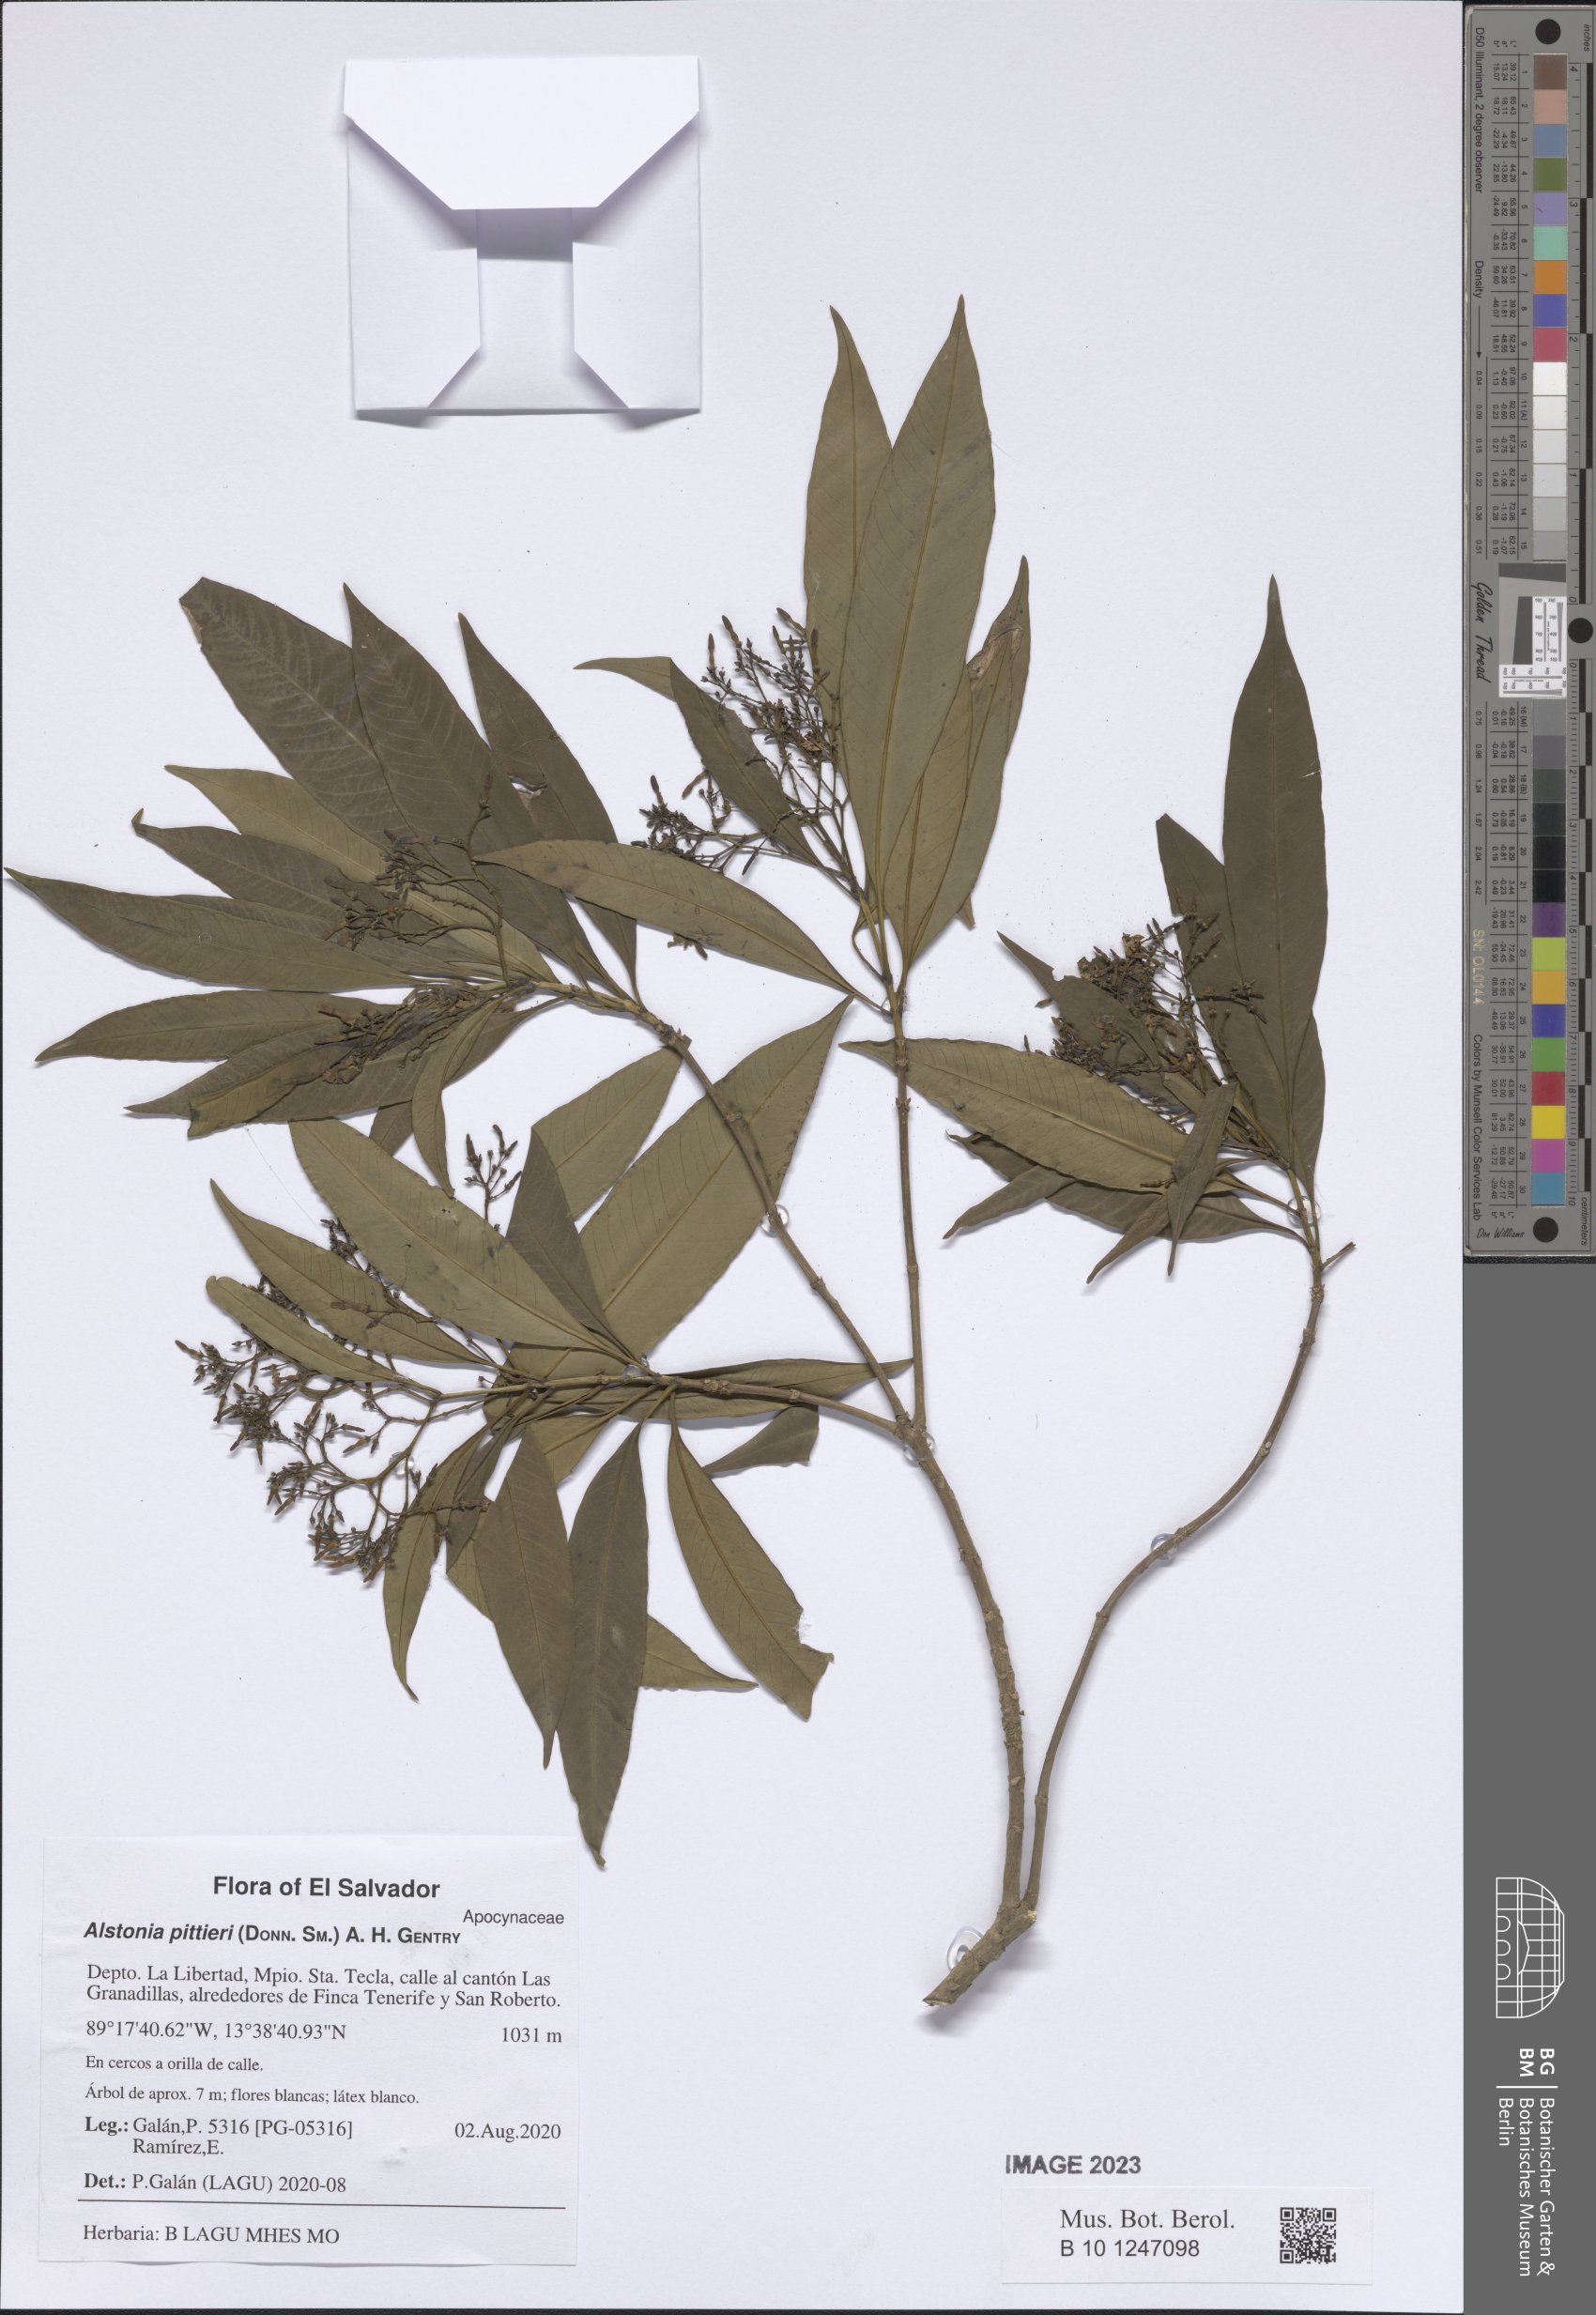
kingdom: Plantae
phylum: Tracheophyta
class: Magnoliopsida
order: Gentianales
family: Apocynaceae
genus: Tonduzia
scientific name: Tonduzia longifolia
